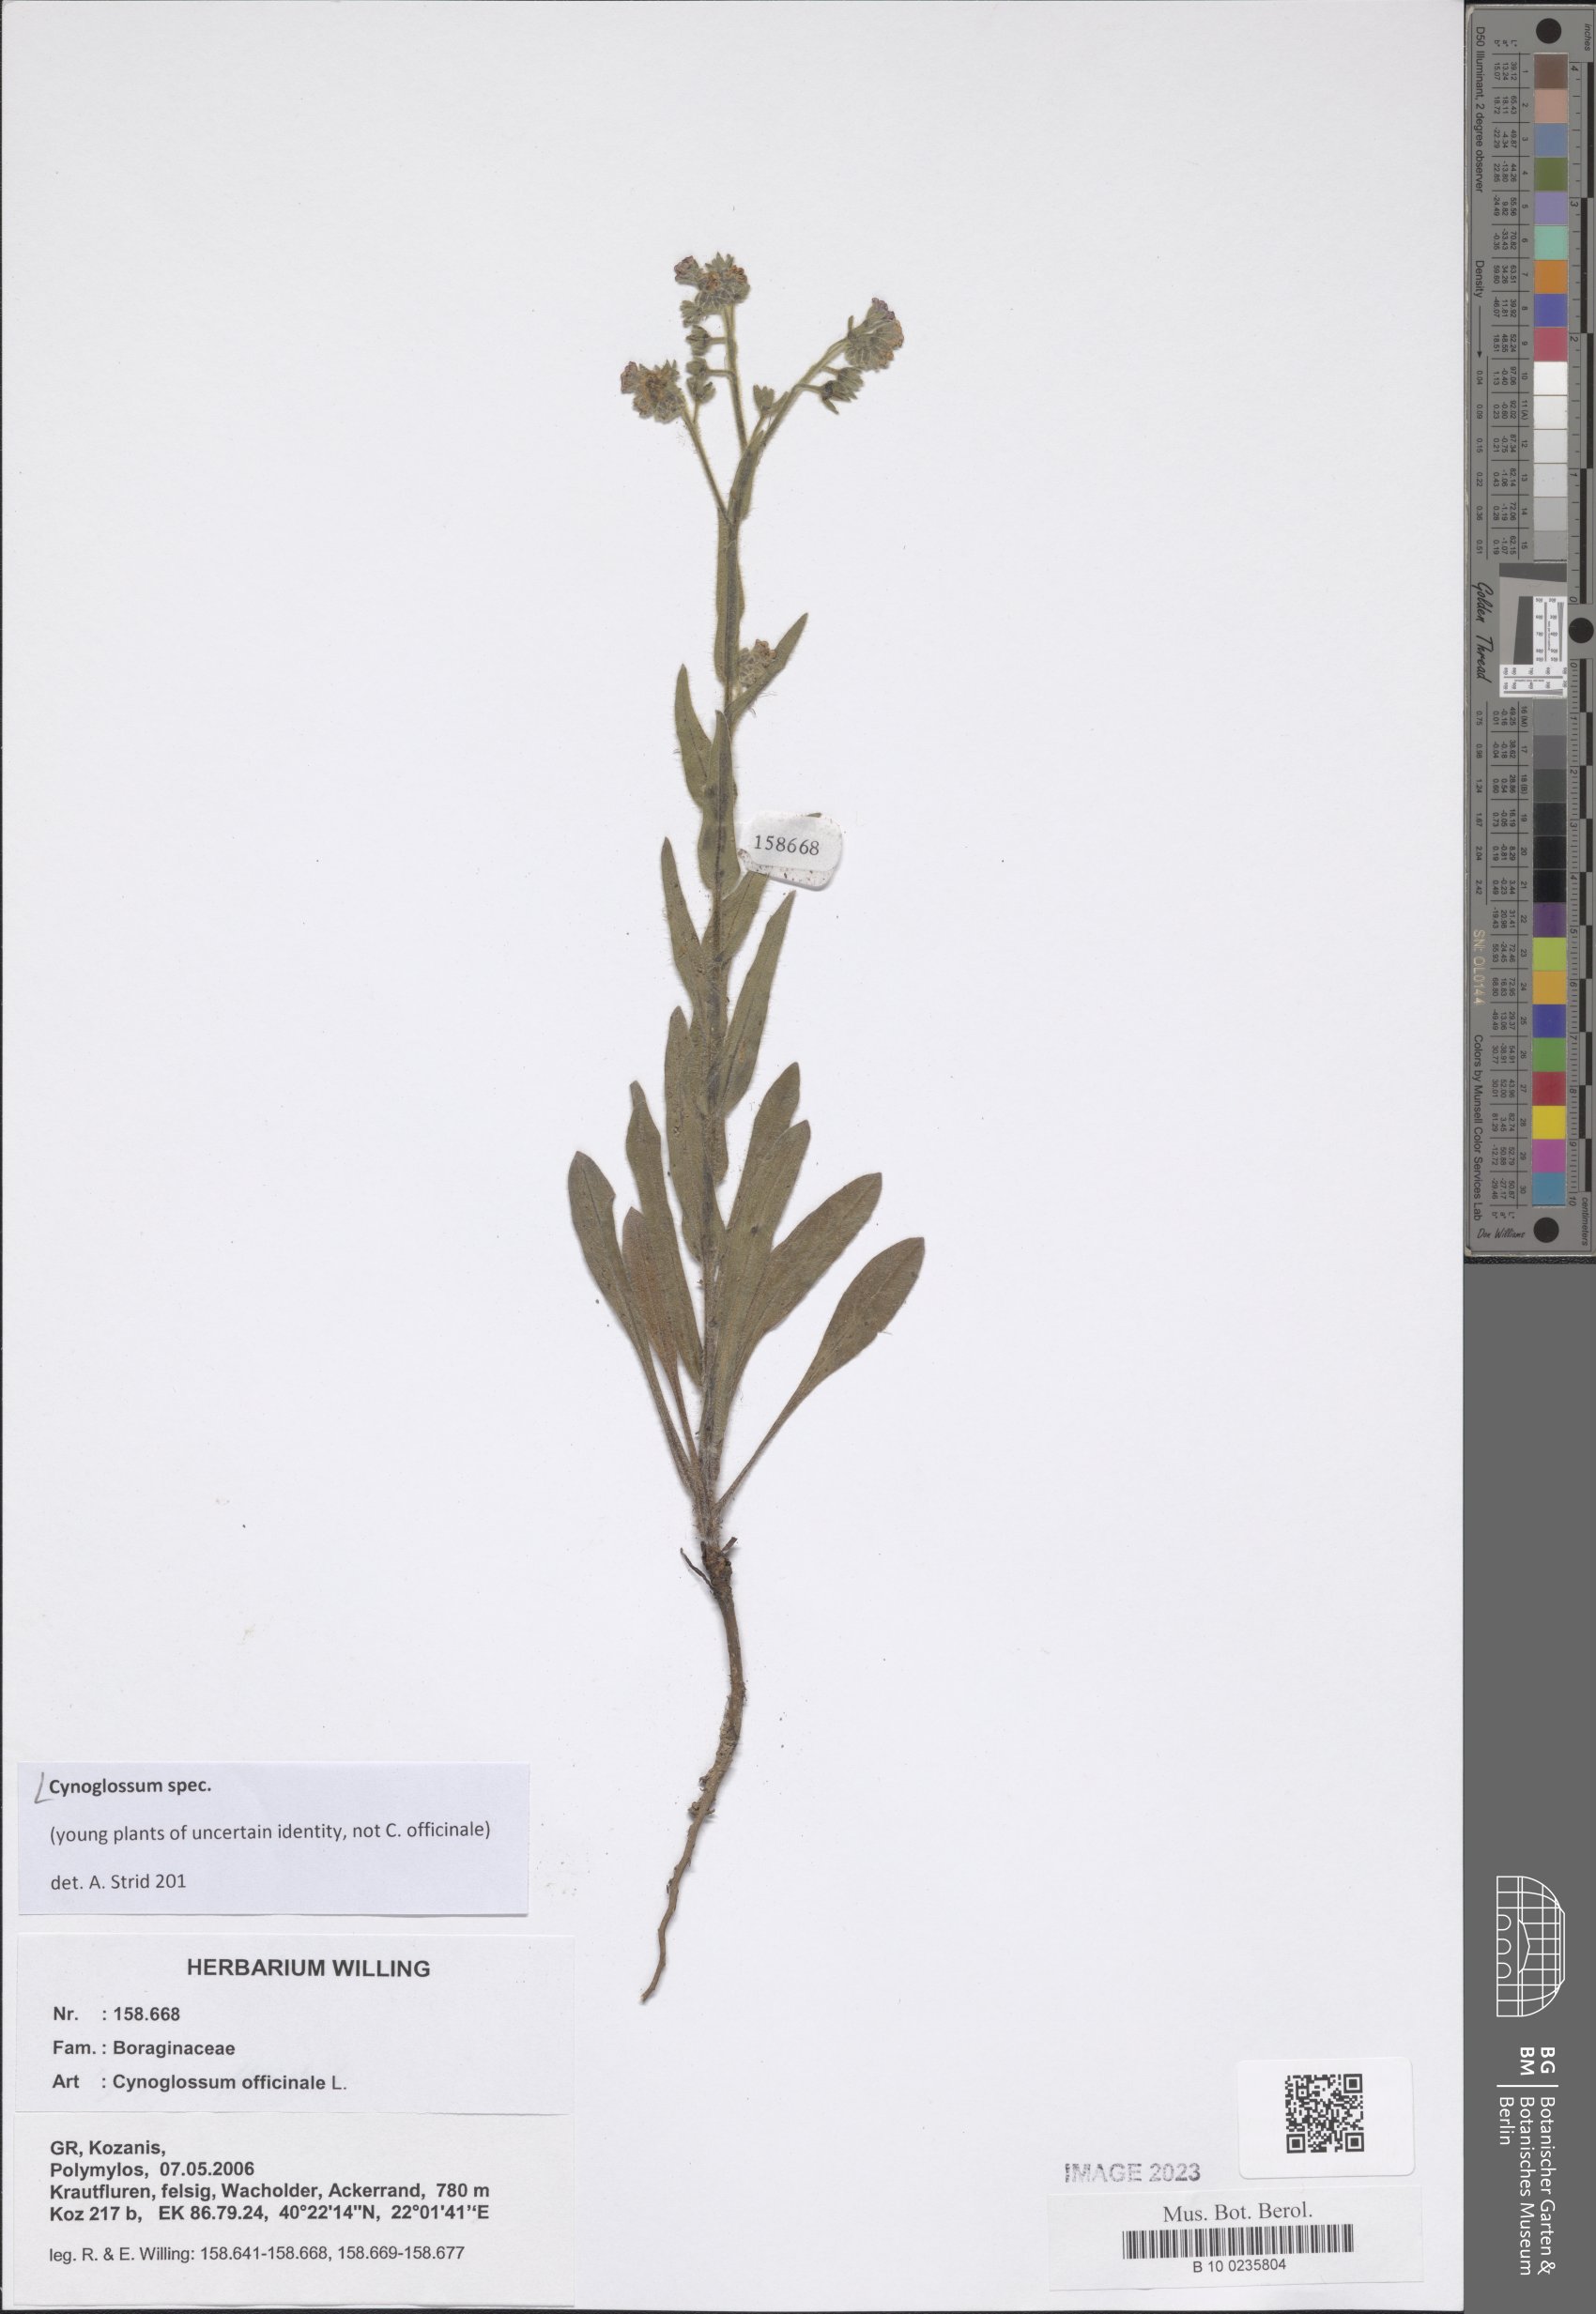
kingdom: Plantae
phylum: Tracheophyta
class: Magnoliopsida
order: Boraginales
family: Boraginaceae
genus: Cynoglossum
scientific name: Cynoglossum
